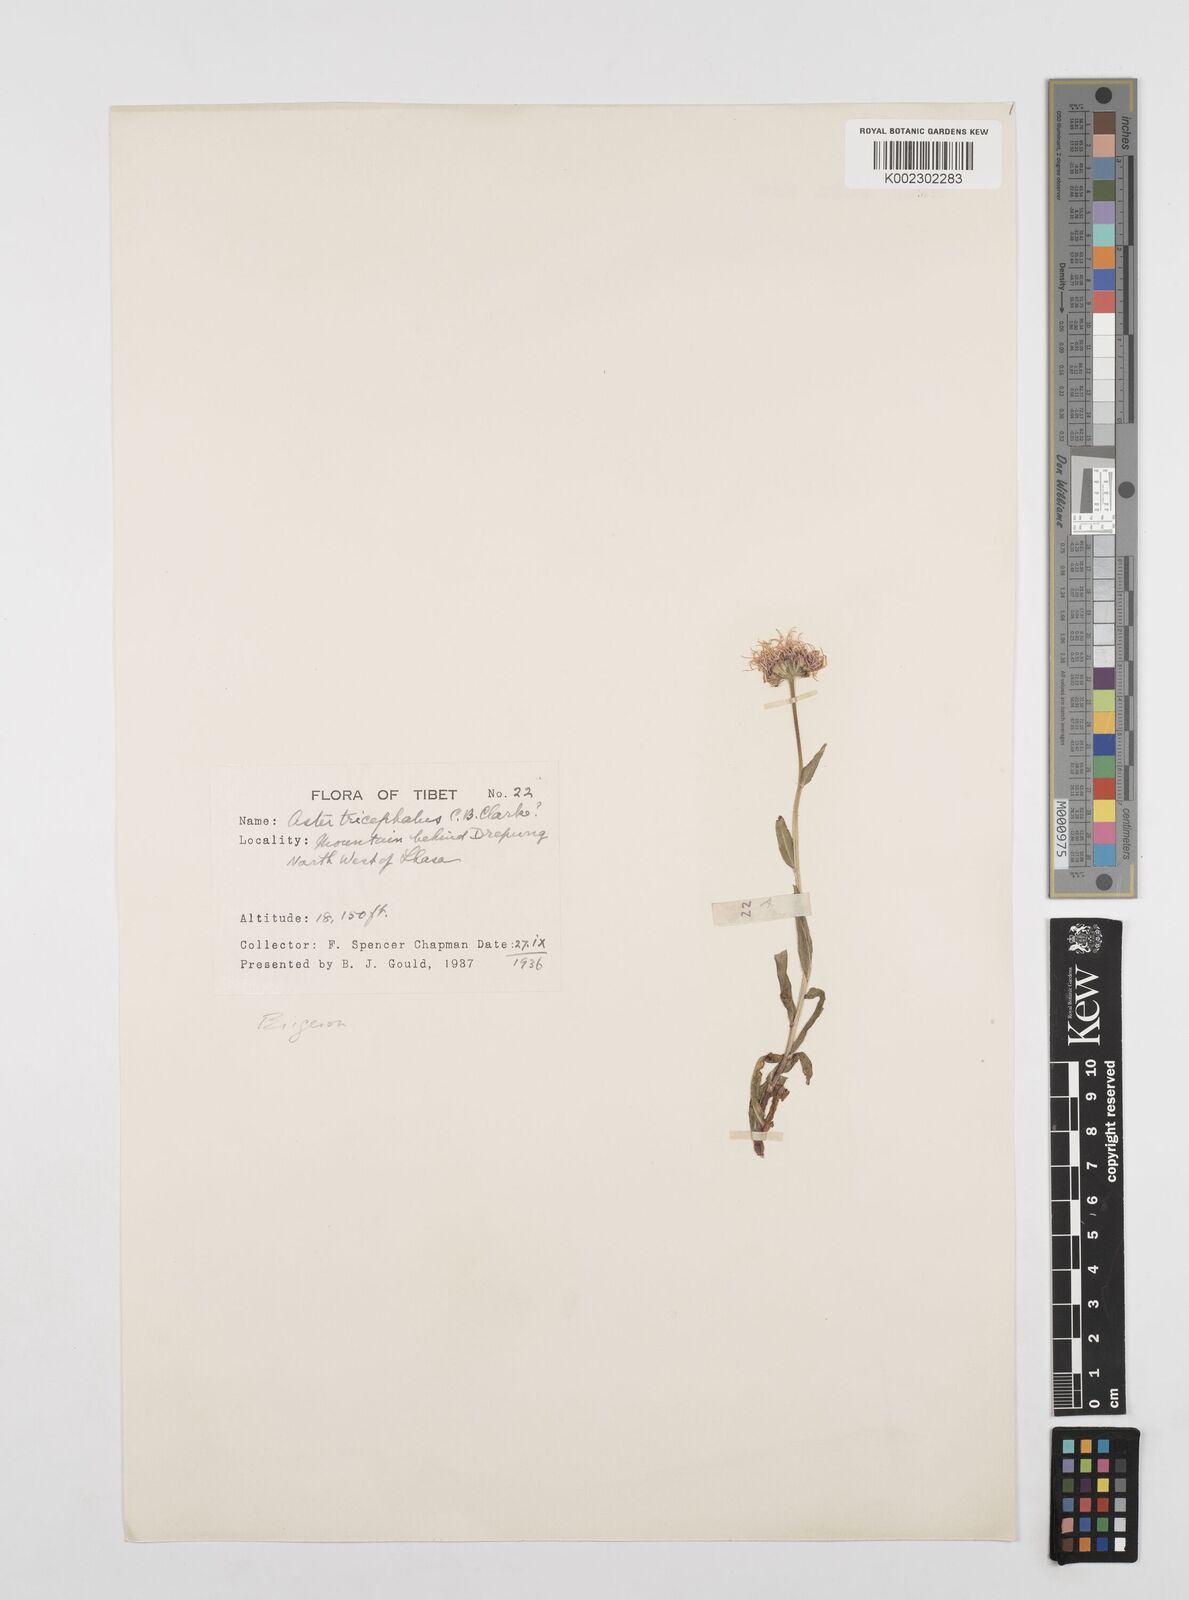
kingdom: Plantae
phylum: Tracheophyta
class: Magnoliopsida
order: Asterales
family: Asteraceae
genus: Erigeron
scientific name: Erigeron multiradiatus
